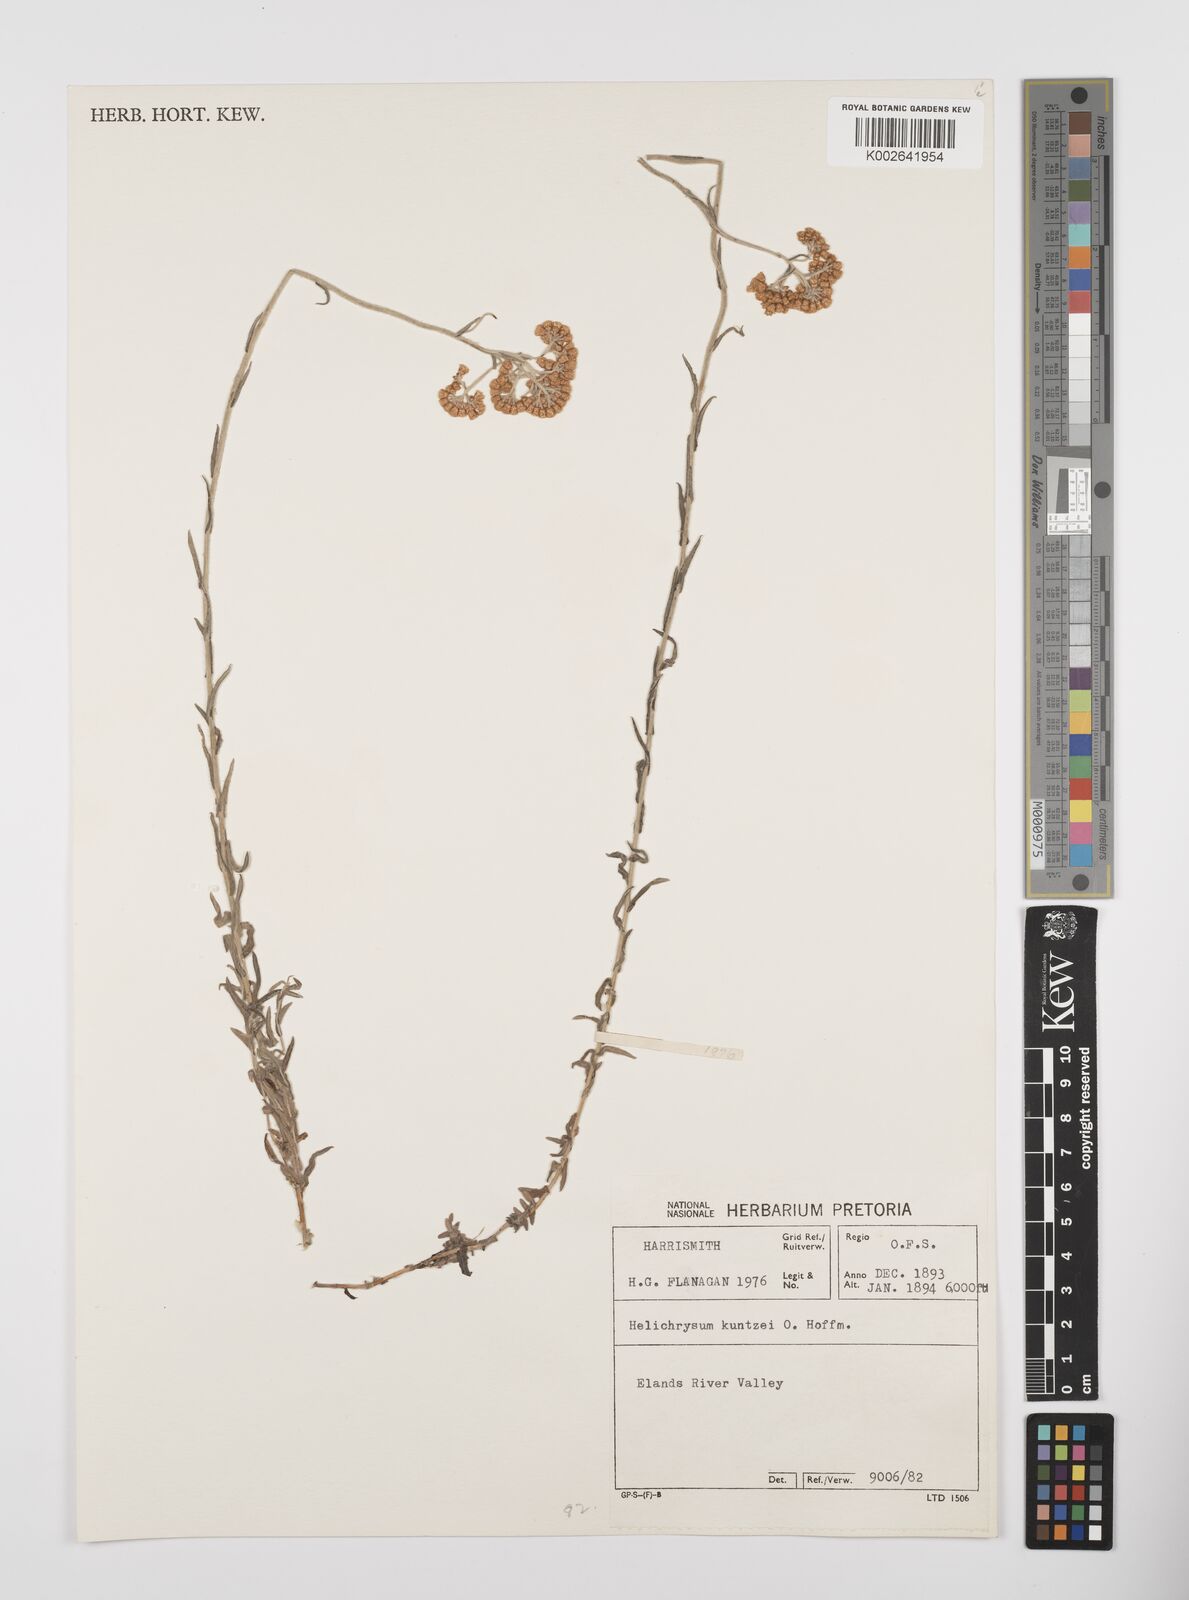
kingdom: Plantae
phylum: Tracheophyta
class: Magnoliopsida
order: Asterales
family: Asteraceae
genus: Helichrysum
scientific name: Helichrysum melanacme
